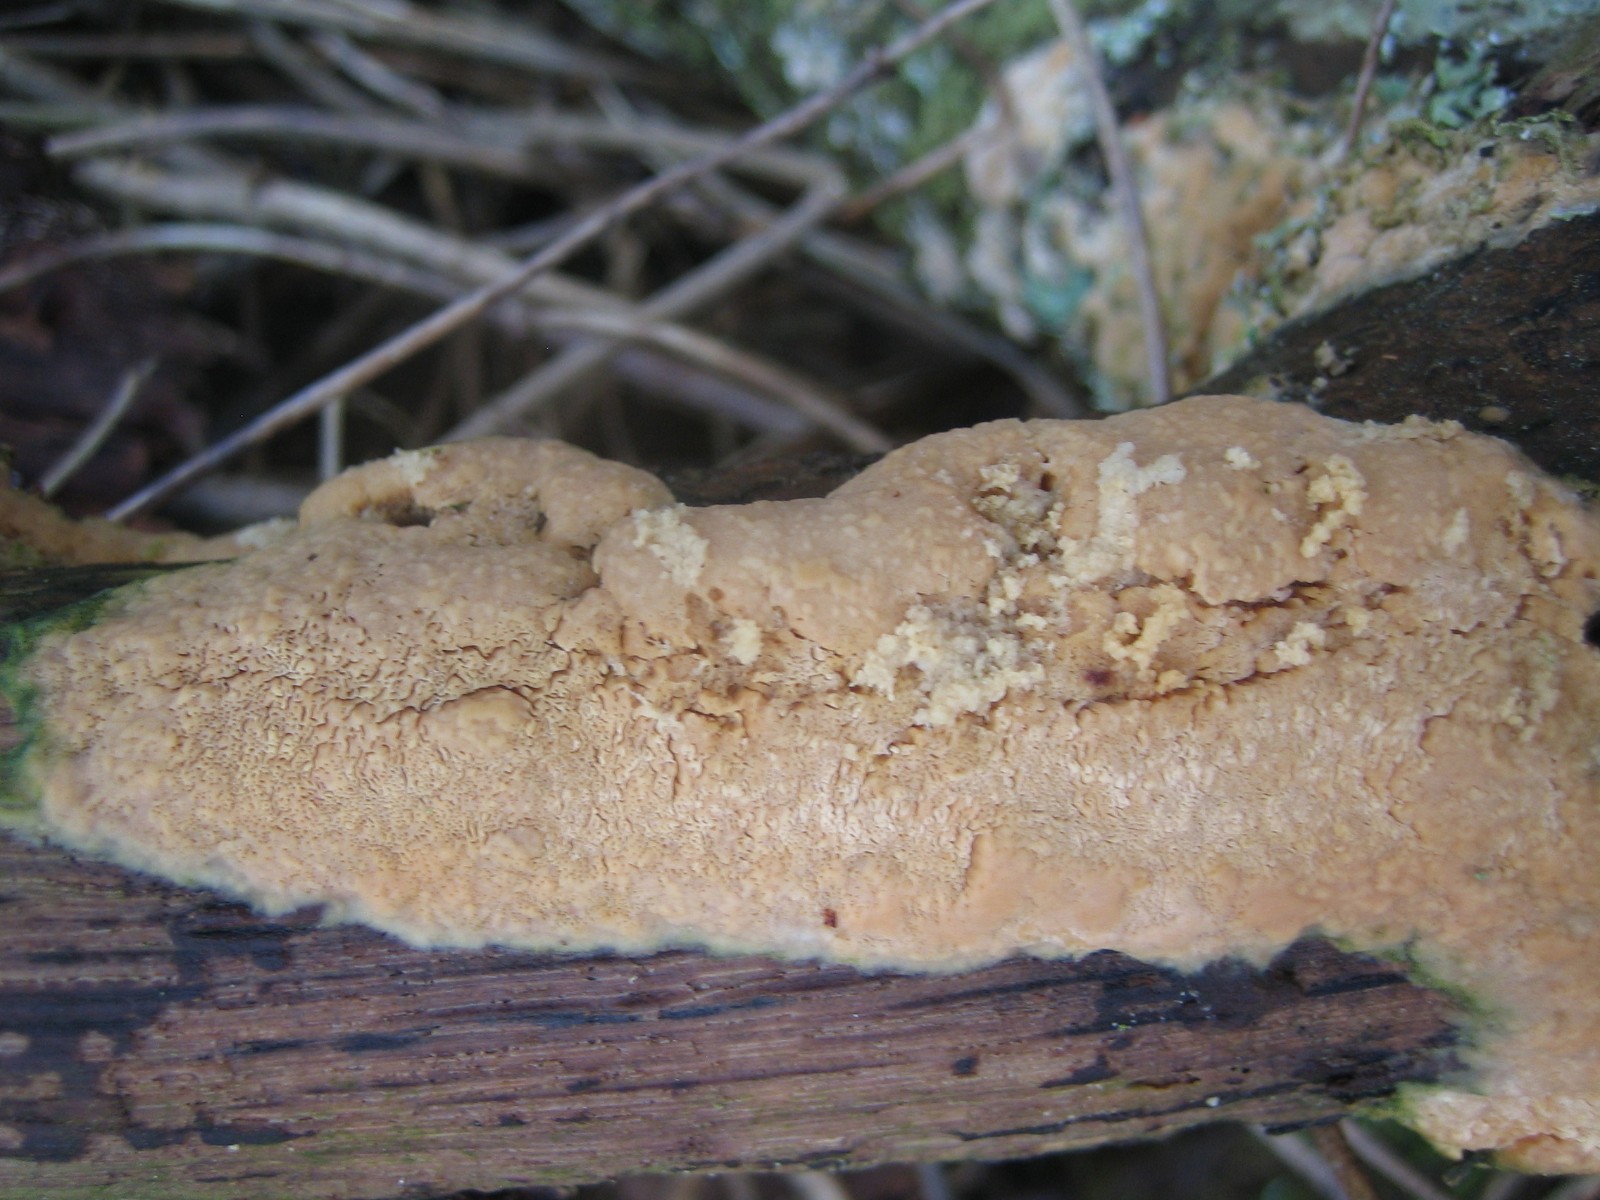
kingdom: Fungi
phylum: Basidiomycota
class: Agaricomycetes
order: Polyporales
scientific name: Polyporales
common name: poresvampordenen
